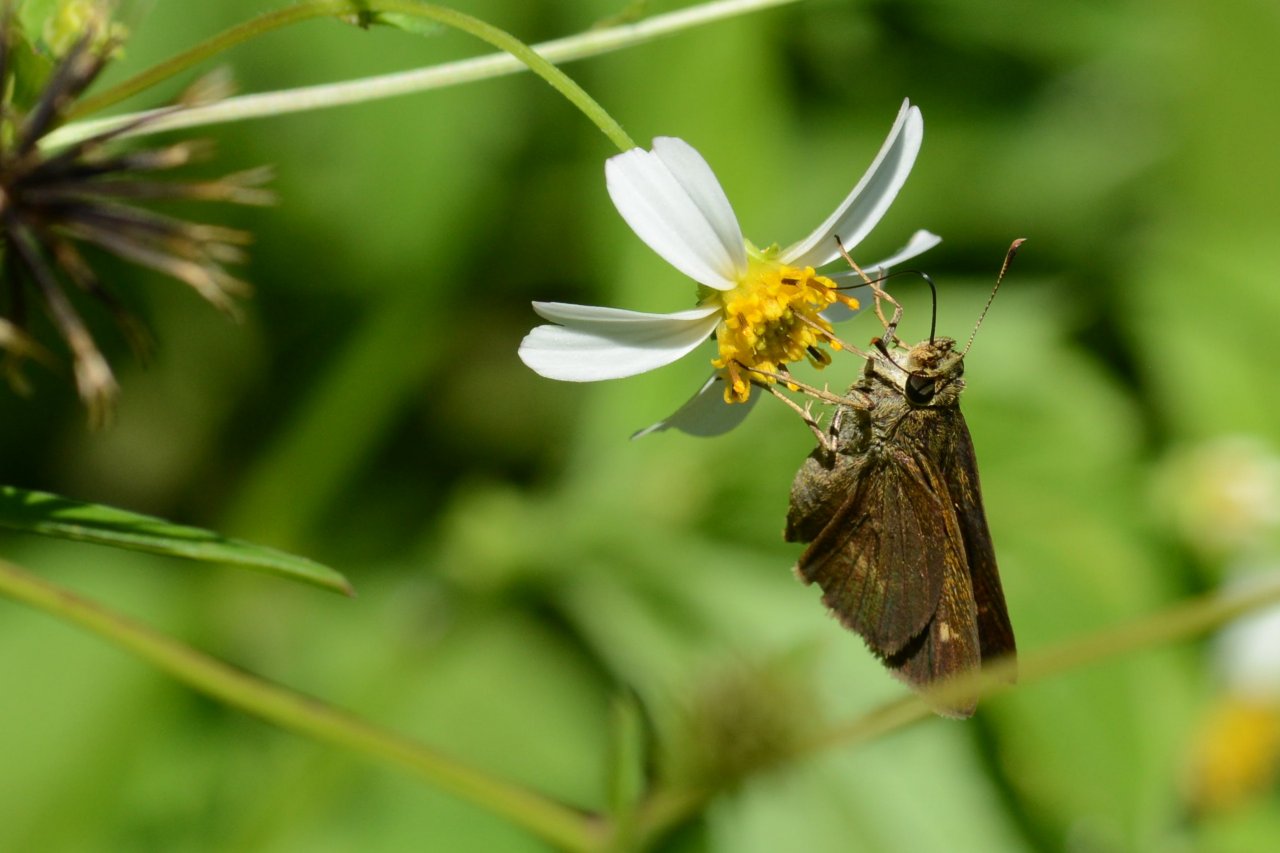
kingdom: Animalia
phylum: Arthropoda
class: Insecta
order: Lepidoptera
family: Hesperiidae
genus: Polites
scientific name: Polites egeremet
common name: Northern Broken-Dash
